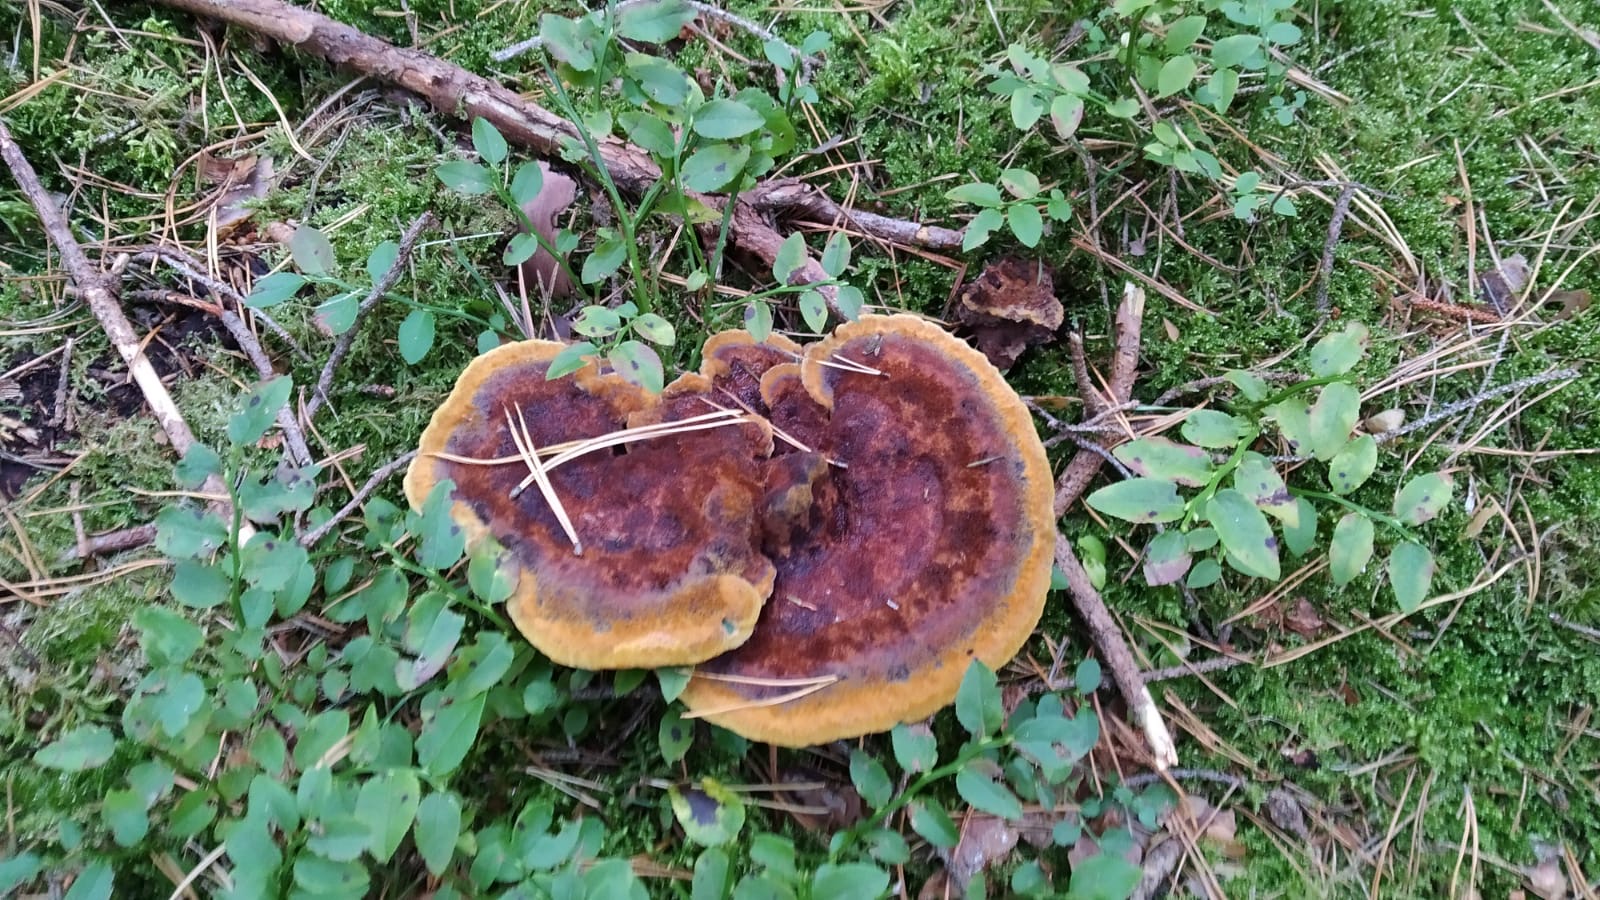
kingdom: Fungi
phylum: Basidiomycota
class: Agaricomycetes
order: Polyporales
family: Laetiporaceae
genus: Phaeolus
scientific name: Phaeolus schweinitzii
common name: brunporesvamp
